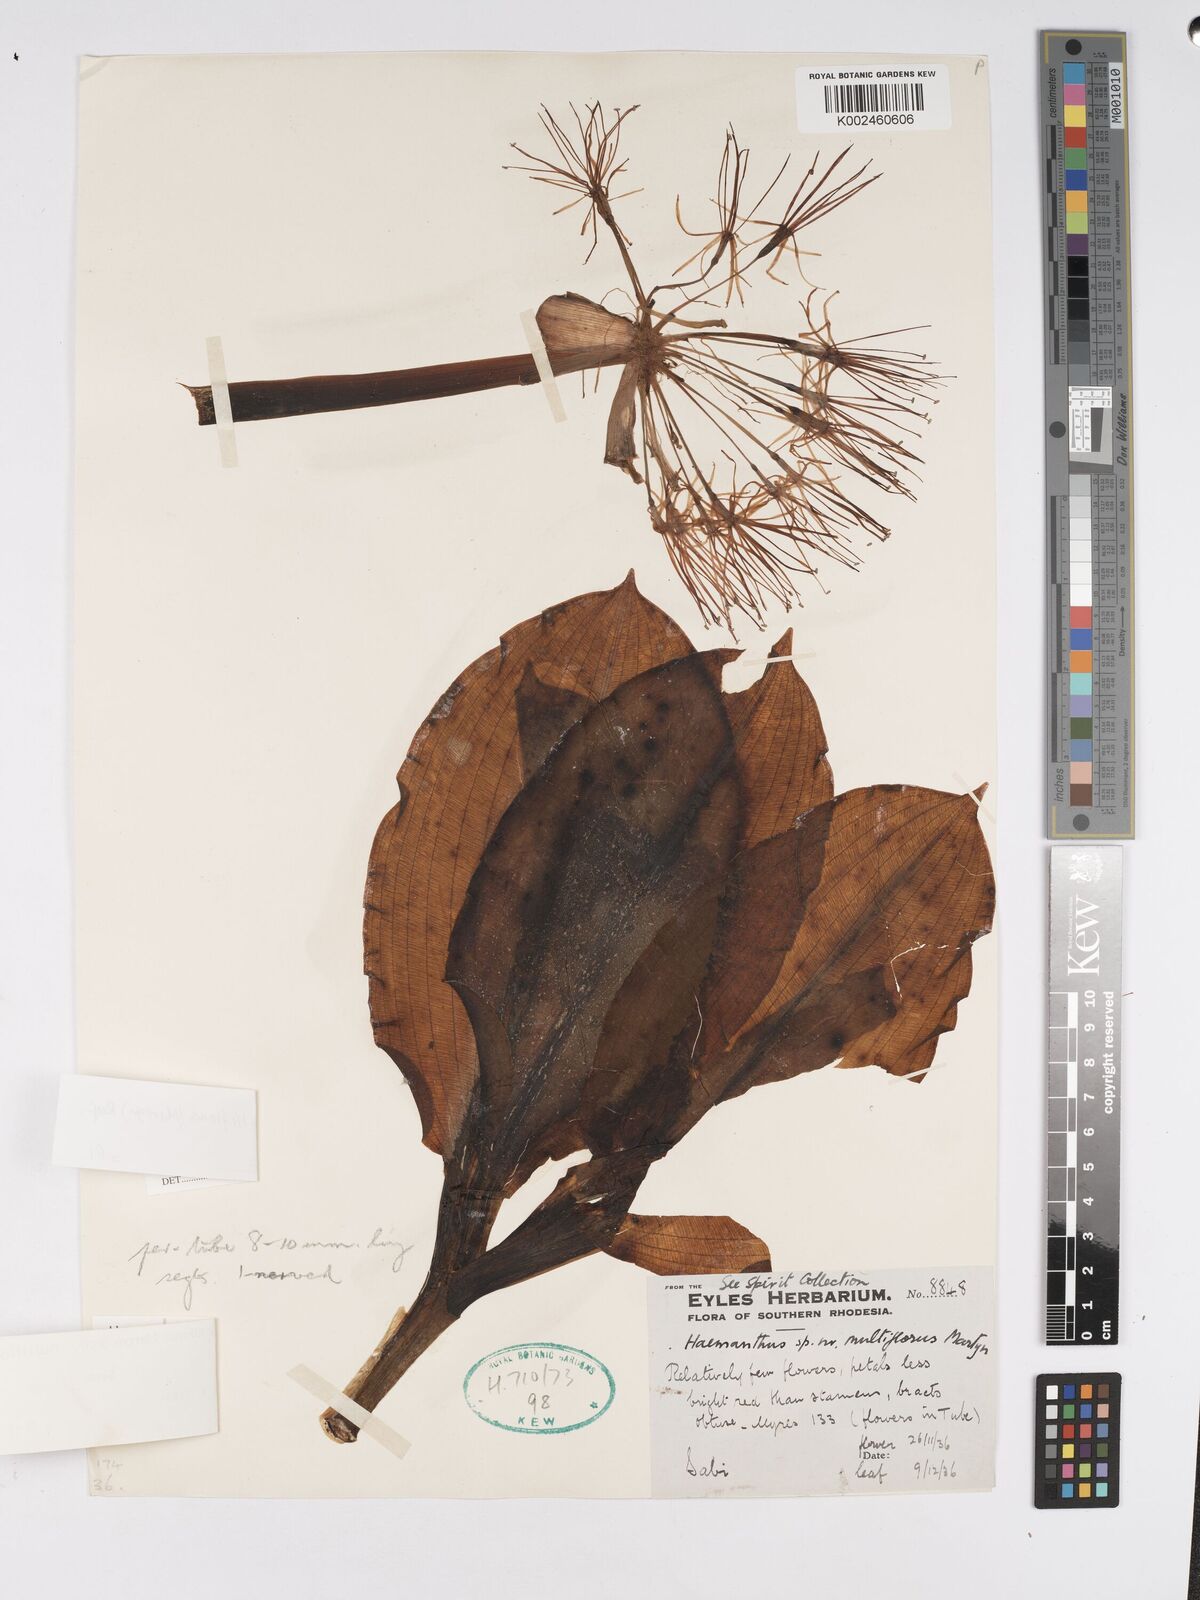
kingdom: Plantae
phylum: Tracheophyta
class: Liliopsida
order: Asparagales
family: Amaryllidaceae
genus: Scadoxus
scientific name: Scadoxus multiflorus
